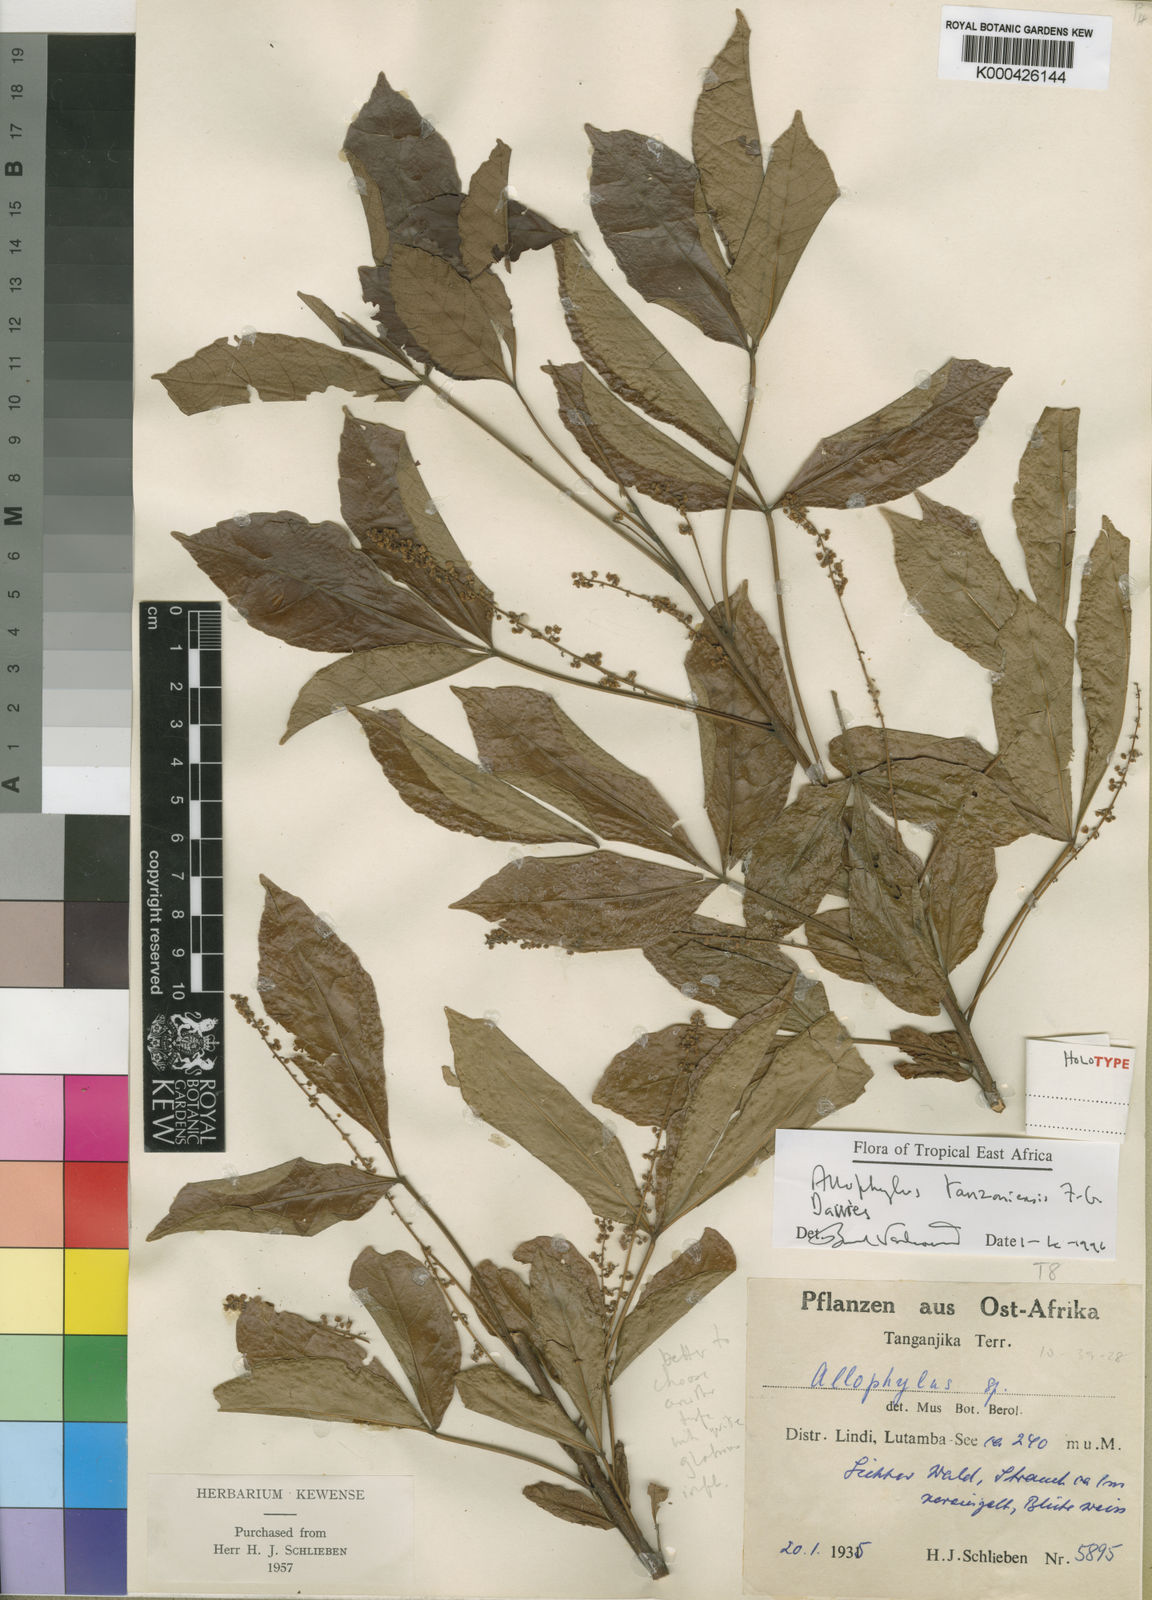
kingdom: Plantae
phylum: Tracheophyta
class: Magnoliopsida
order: Sapindales
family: Sapindaceae
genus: Allophylus
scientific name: Allophylus tanzaniensis
